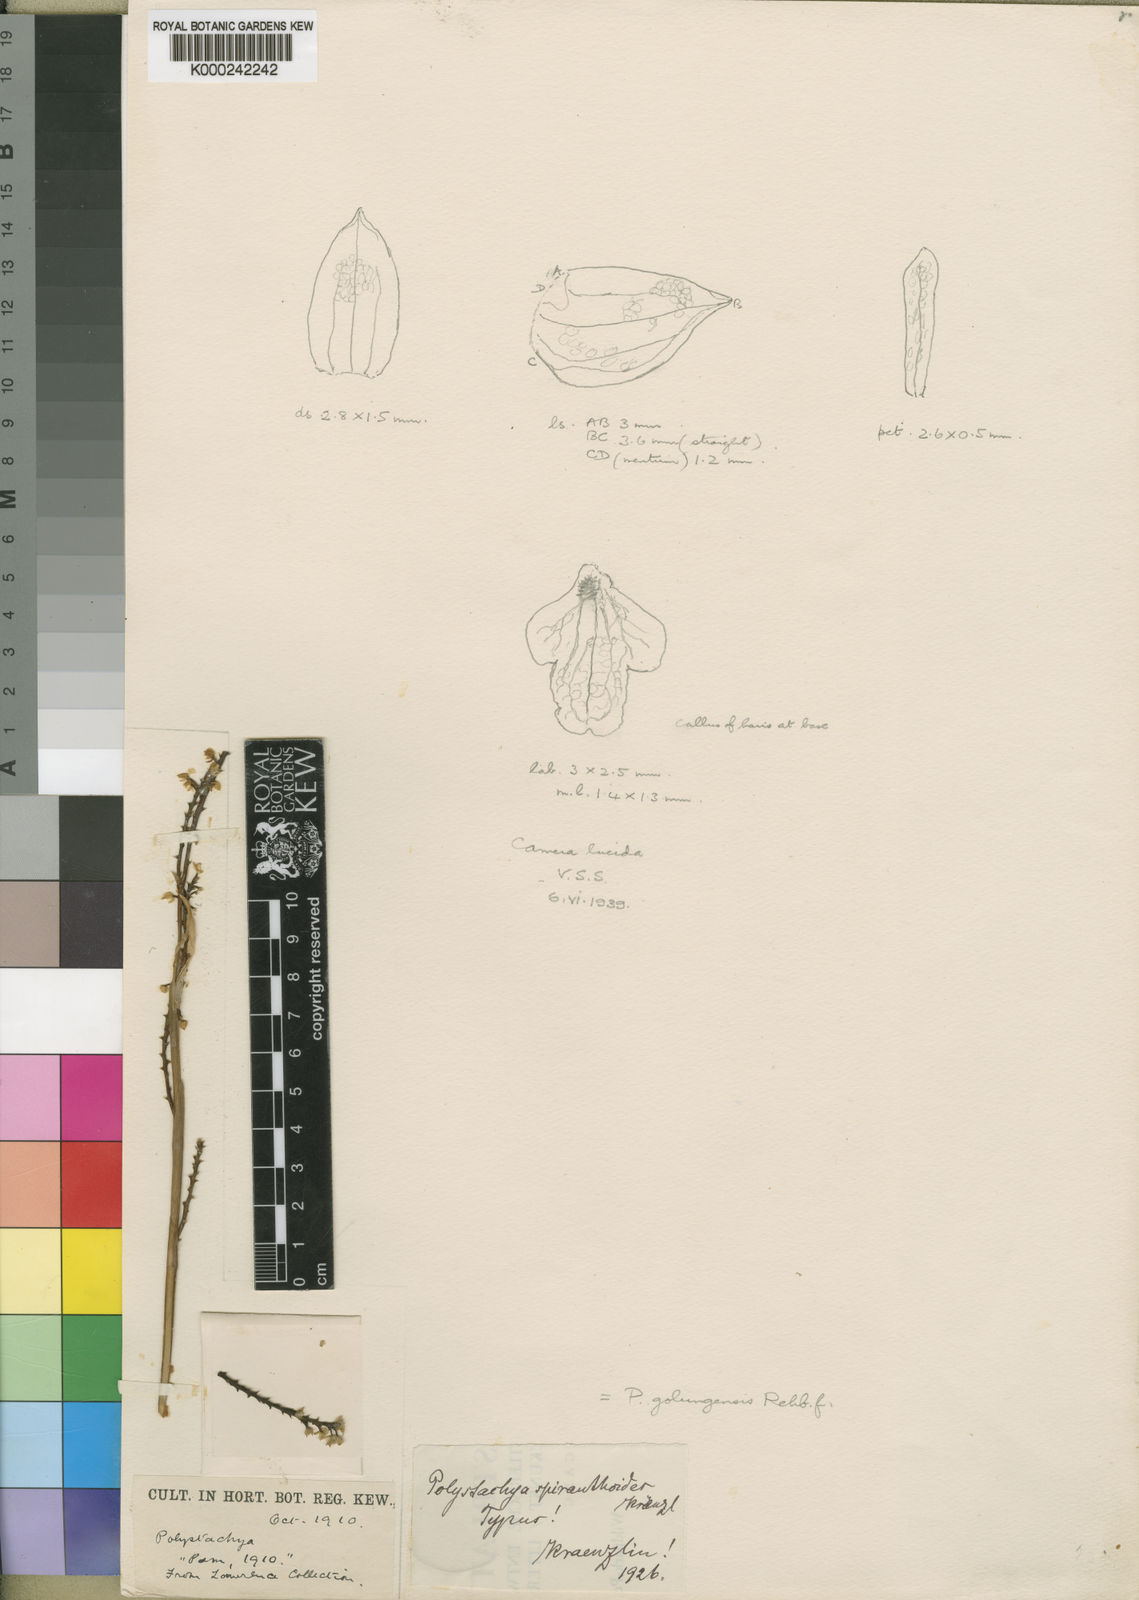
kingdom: Plantae
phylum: Tracheophyta
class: Liliopsida
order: Asparagales
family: Orchidaceae
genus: Polystachya
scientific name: Polystachya golungensis
